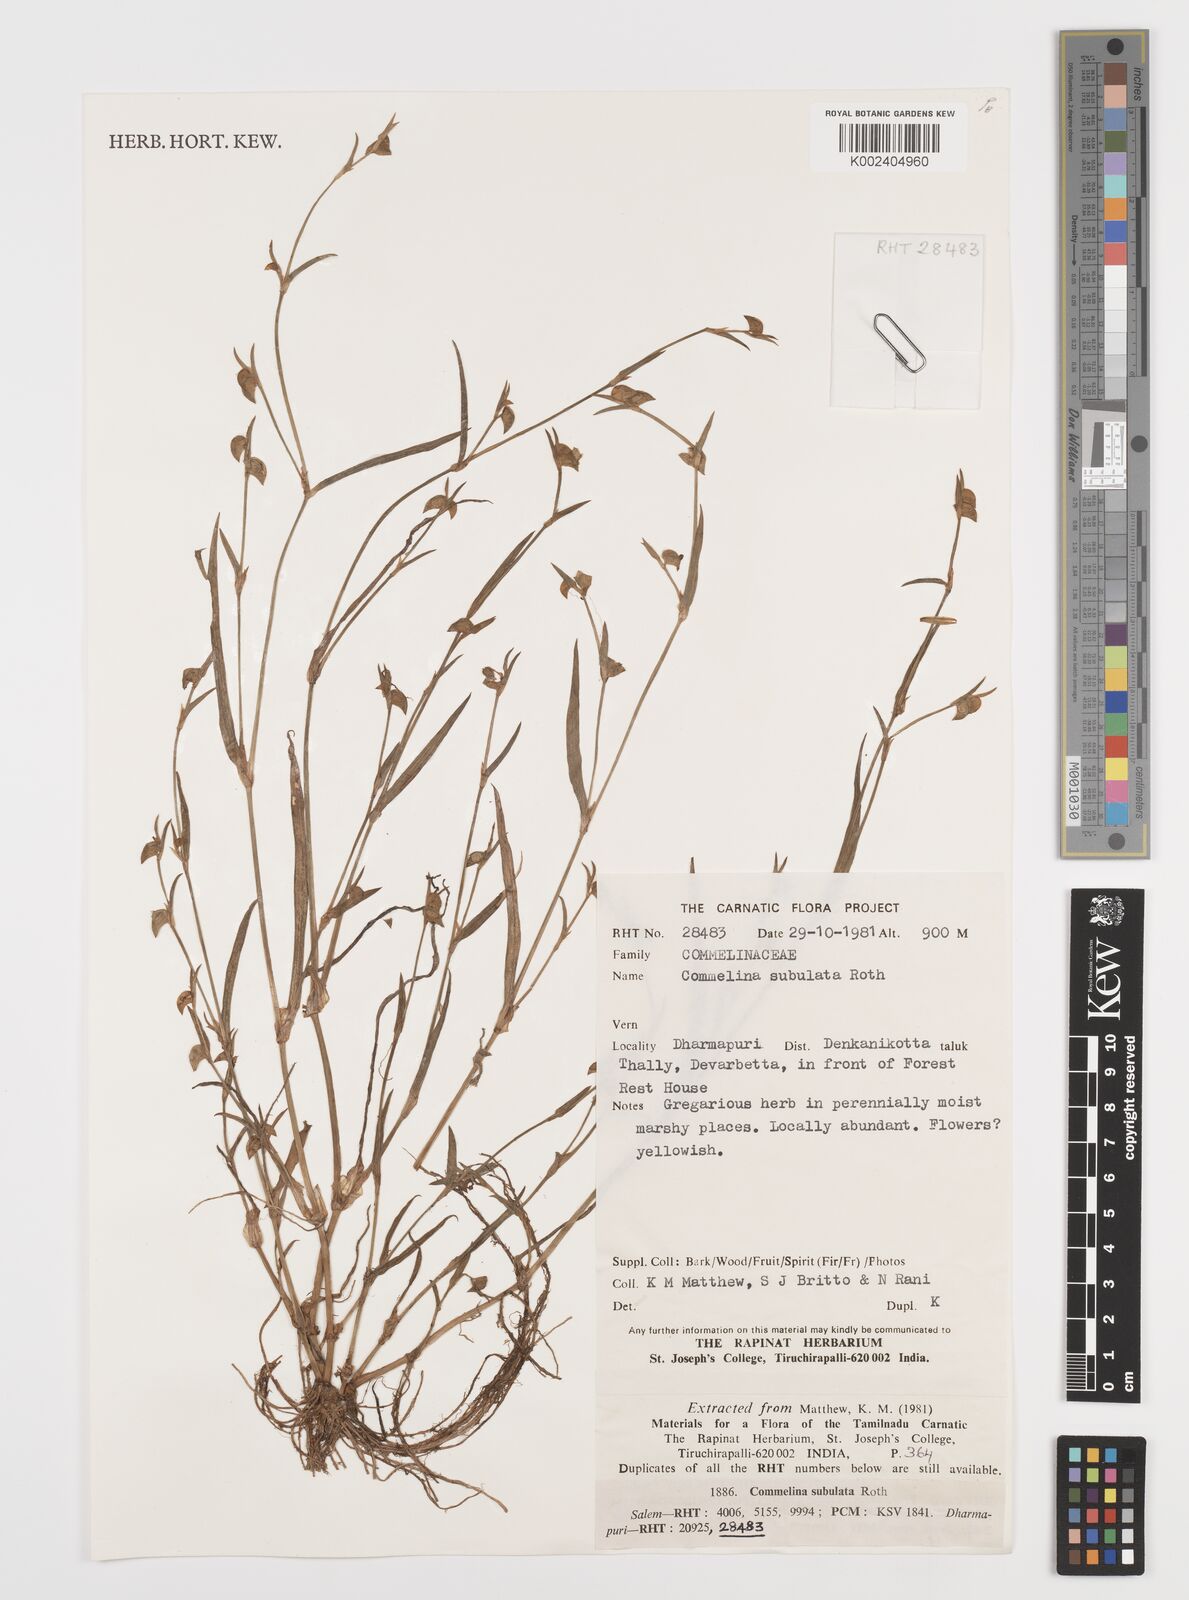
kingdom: Plantae
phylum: Tracheophyta
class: Liliopsida
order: Commelinales
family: Commelinaceae
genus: Commelina
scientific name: Commelina subulata
